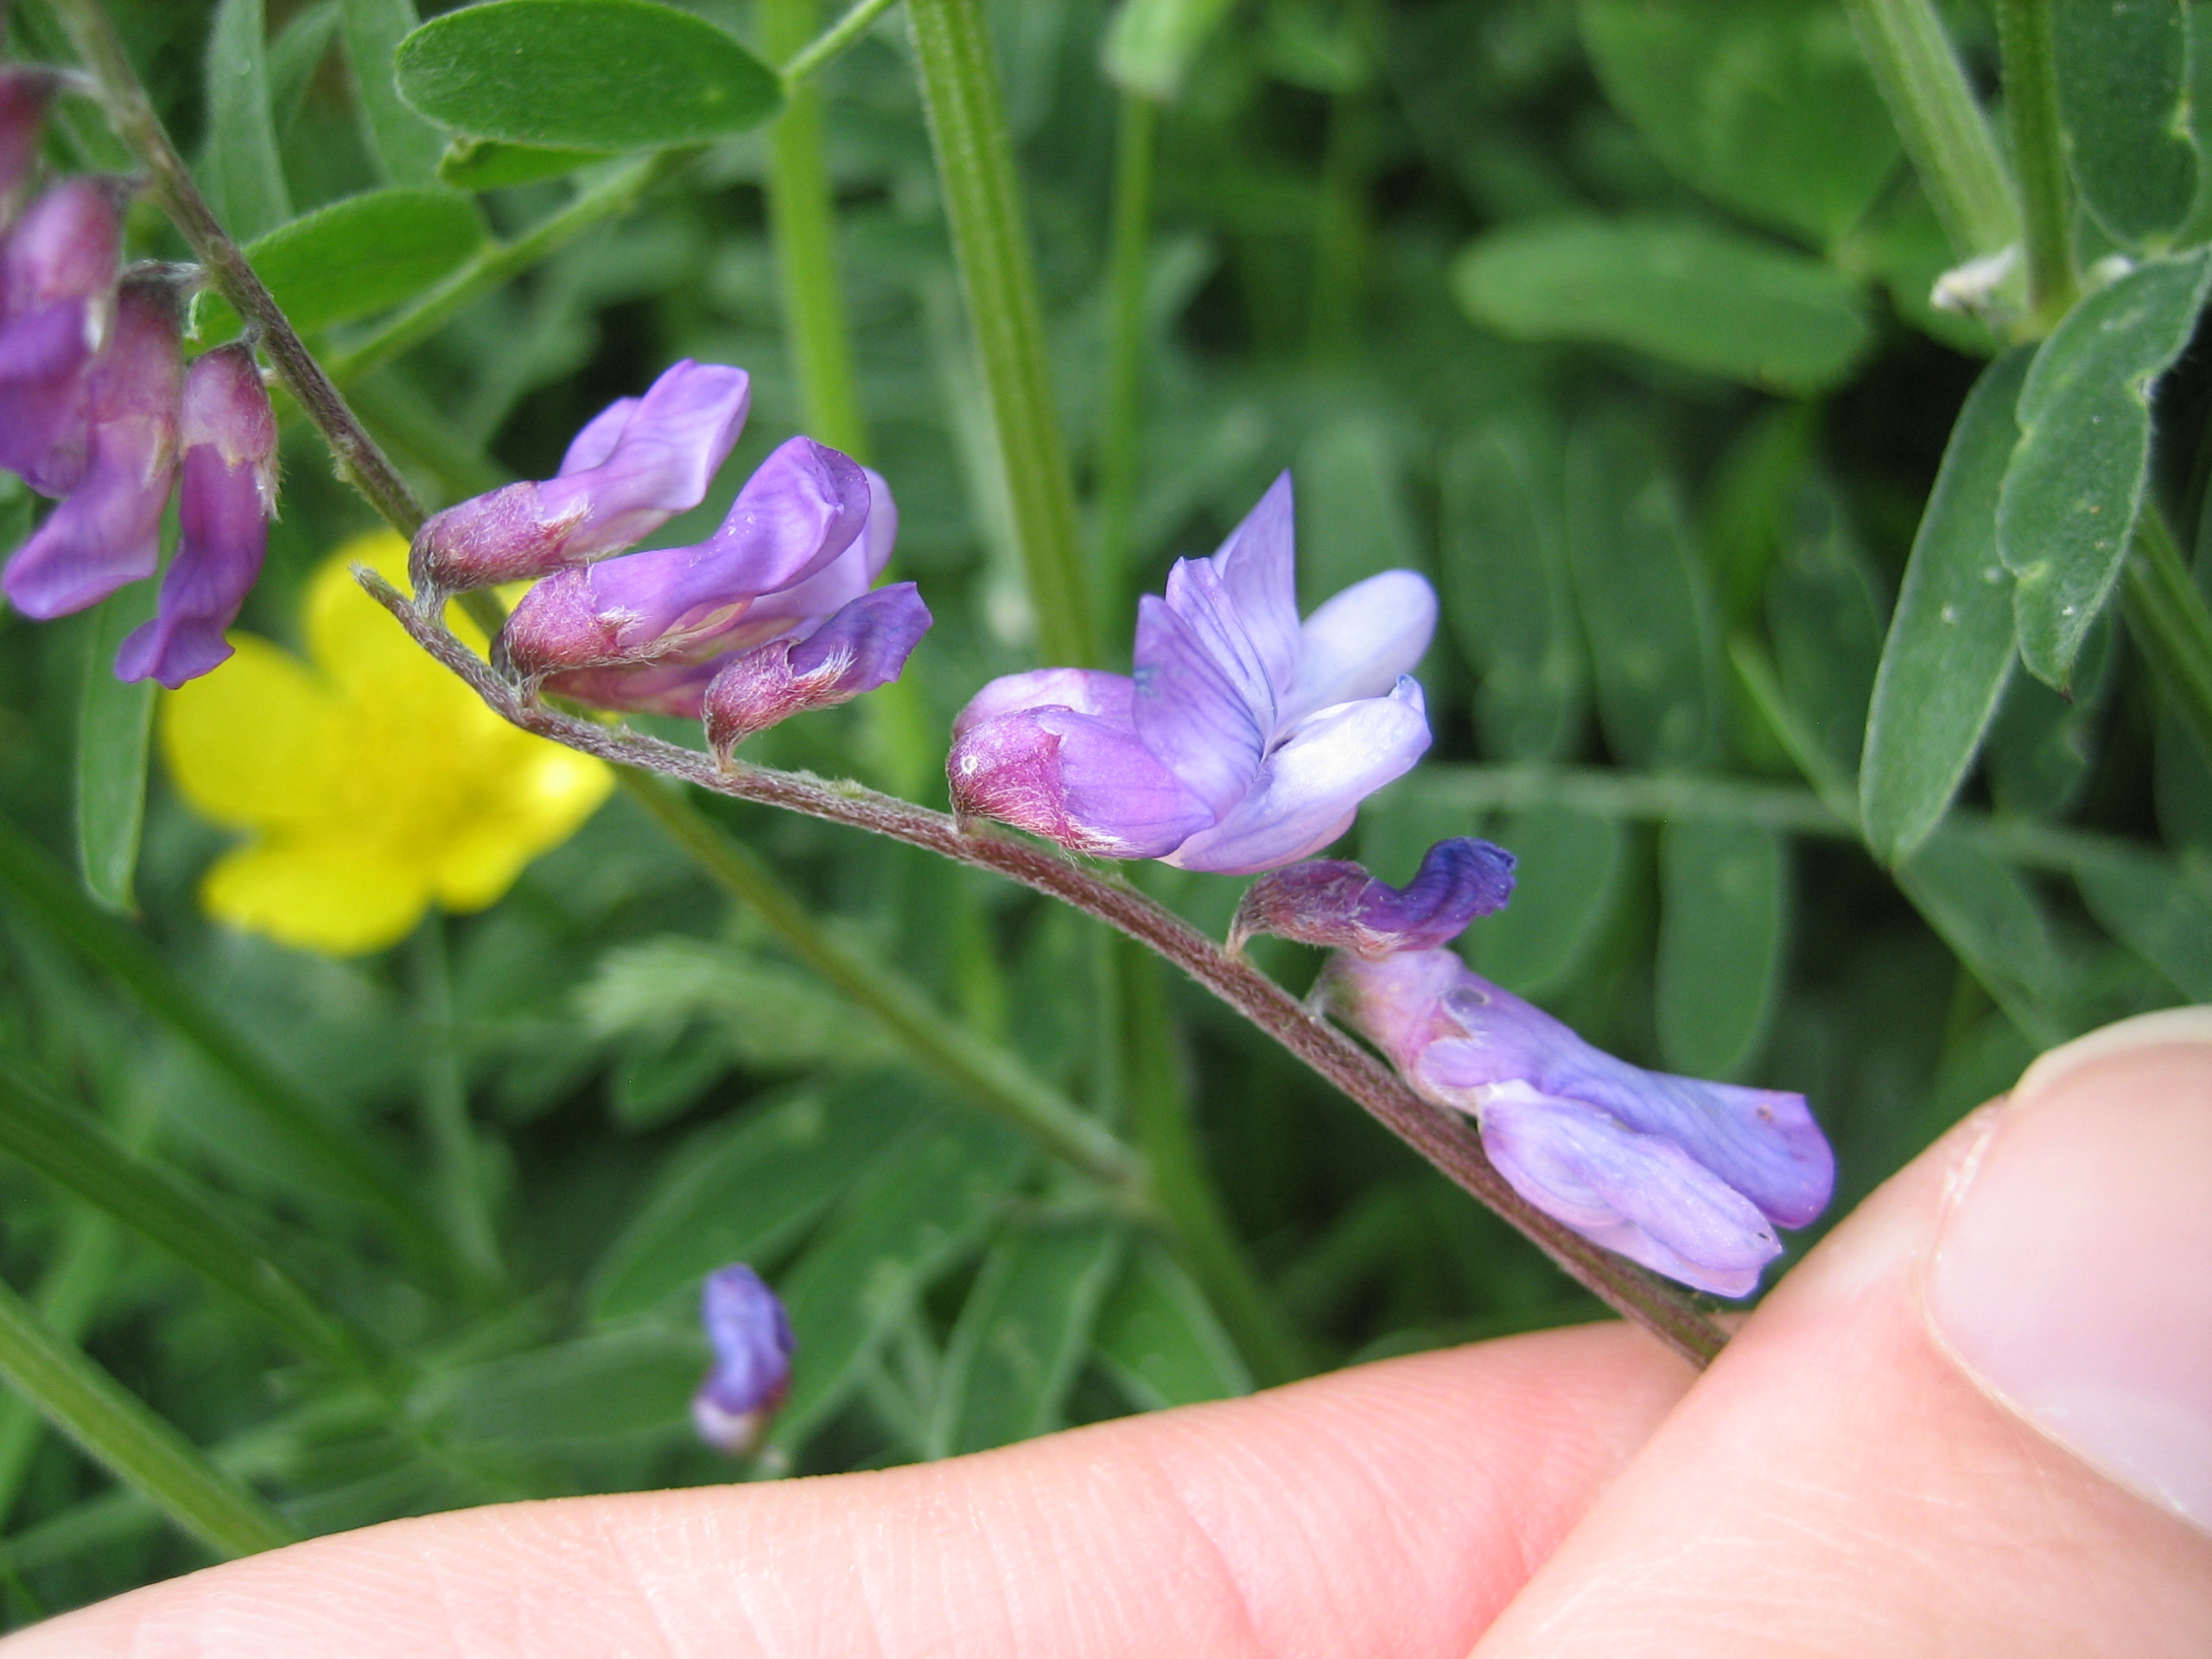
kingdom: Plantae
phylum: Tracheophyta
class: Magnoliopsida
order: Fabales
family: Fabaceae
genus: Vicia
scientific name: Vicia cracca
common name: Muse-vikke
